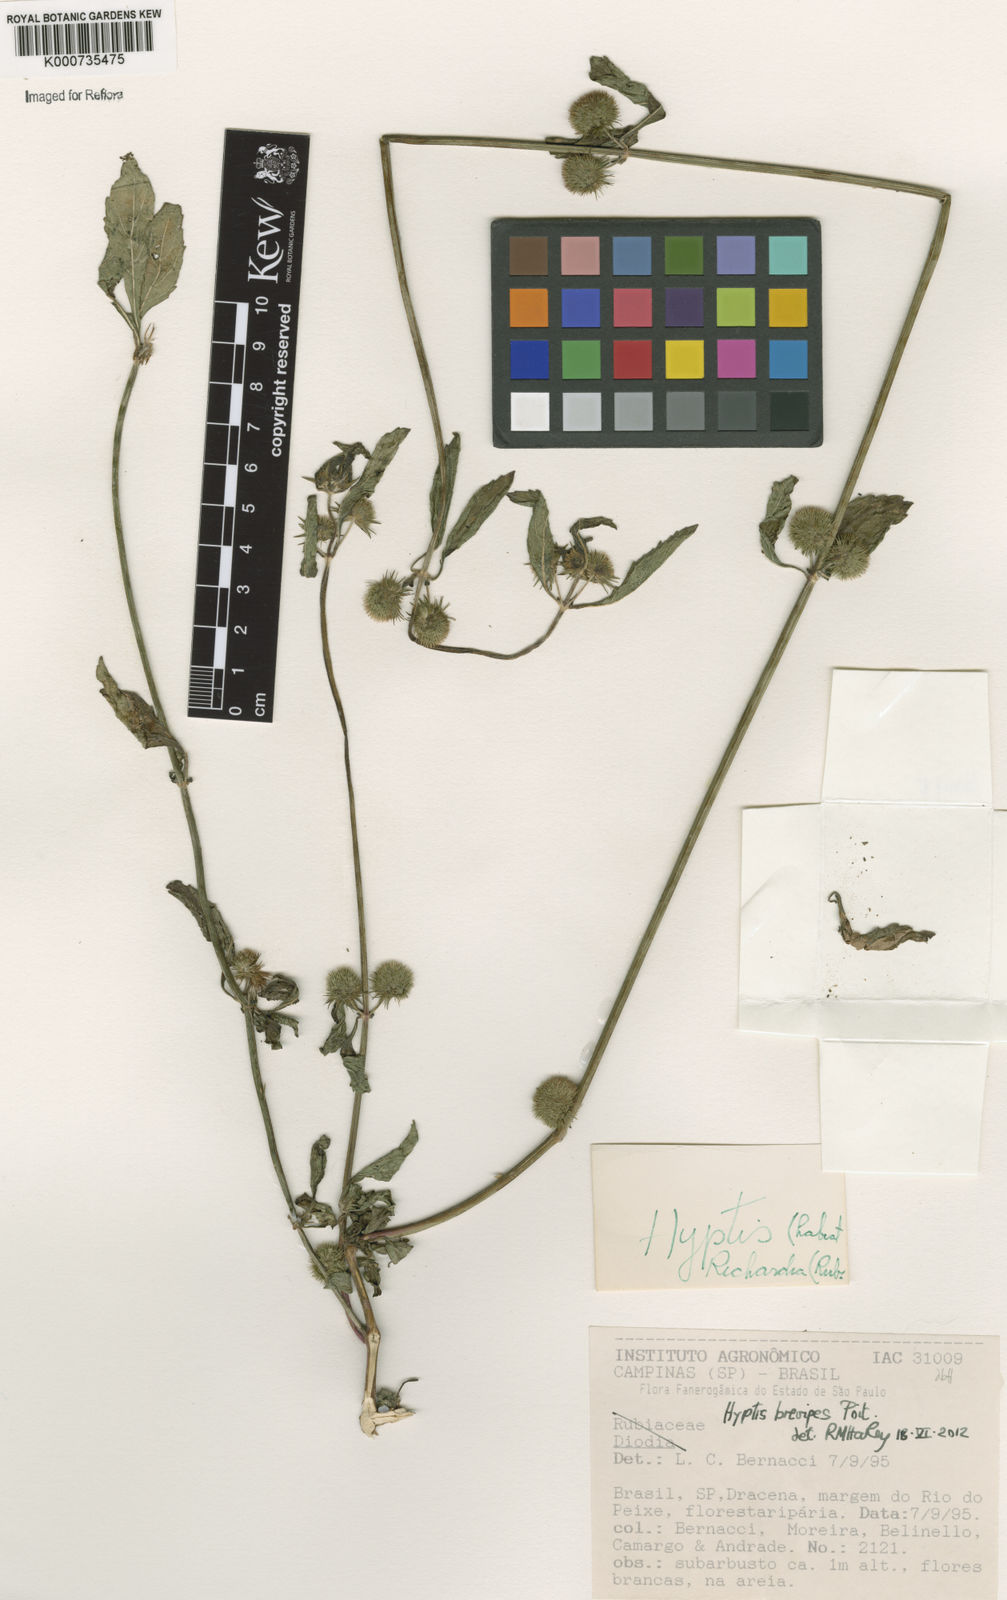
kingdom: Plantae
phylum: Tracheophyta
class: Magnoliopsida
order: Lamiales
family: Lamiaceae
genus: Hyptis
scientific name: Hyptis brevipes
